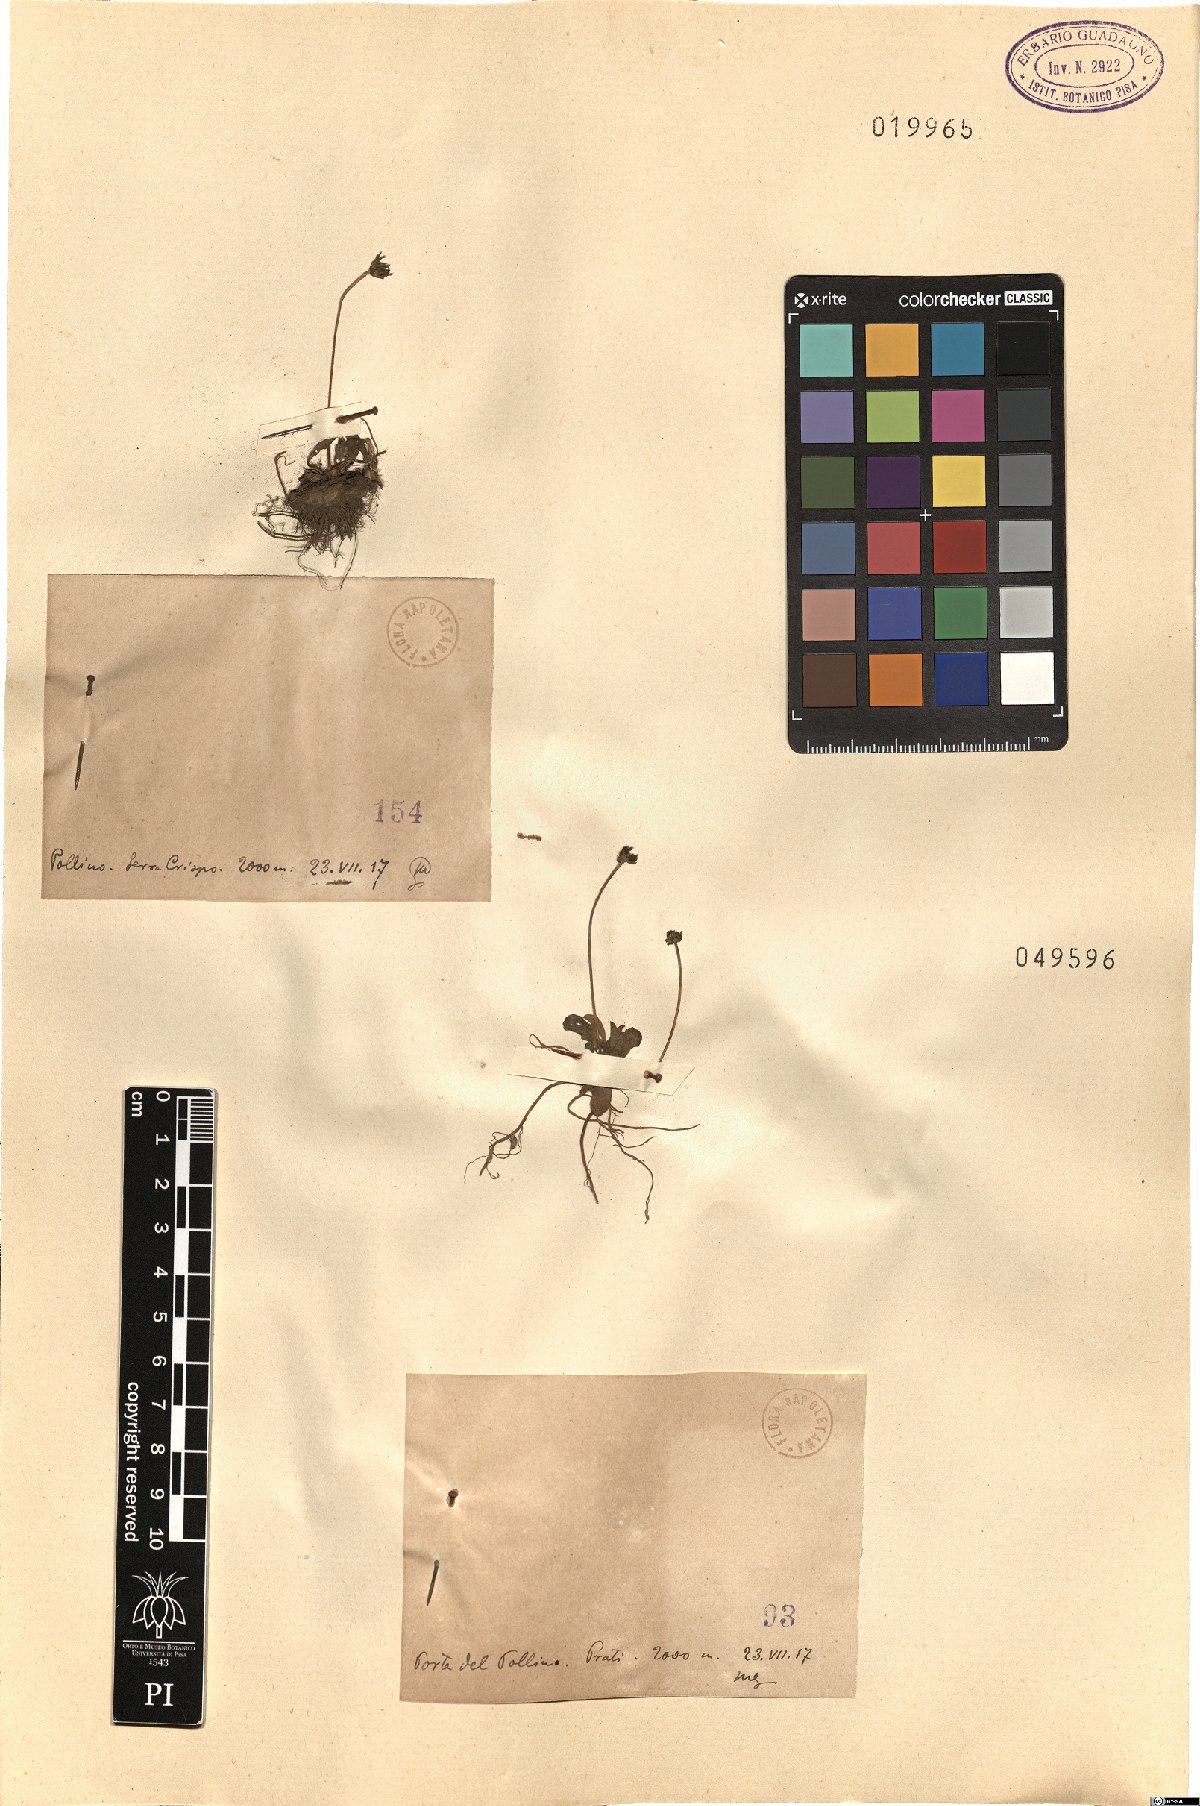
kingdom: Plantae
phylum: Tracheophyta
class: Magnoliopsida
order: Asterales
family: Asteraceae
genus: Hieracium
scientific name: Hieracium
